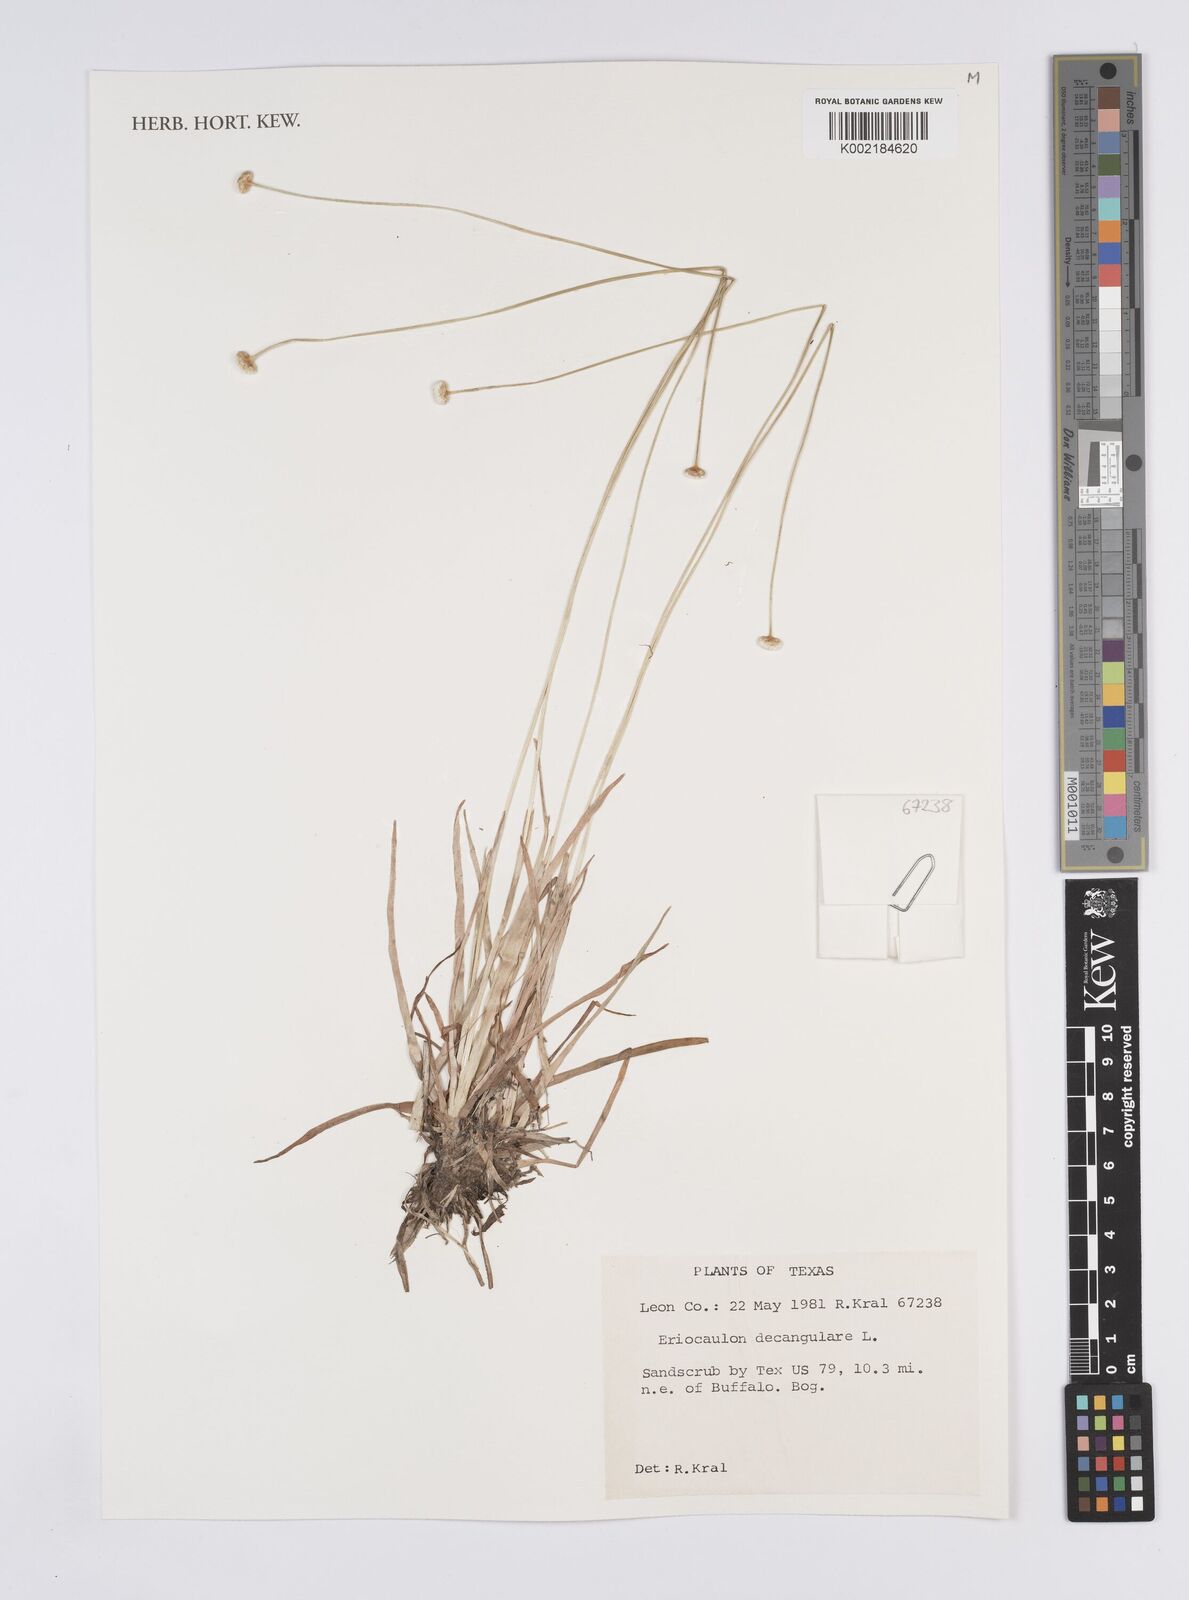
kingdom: Plantae
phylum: Tracheophyta
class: Liliopsida
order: Poales
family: Eriocaulaceae
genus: Eriocaulon
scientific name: Eriocaulon decangulare
